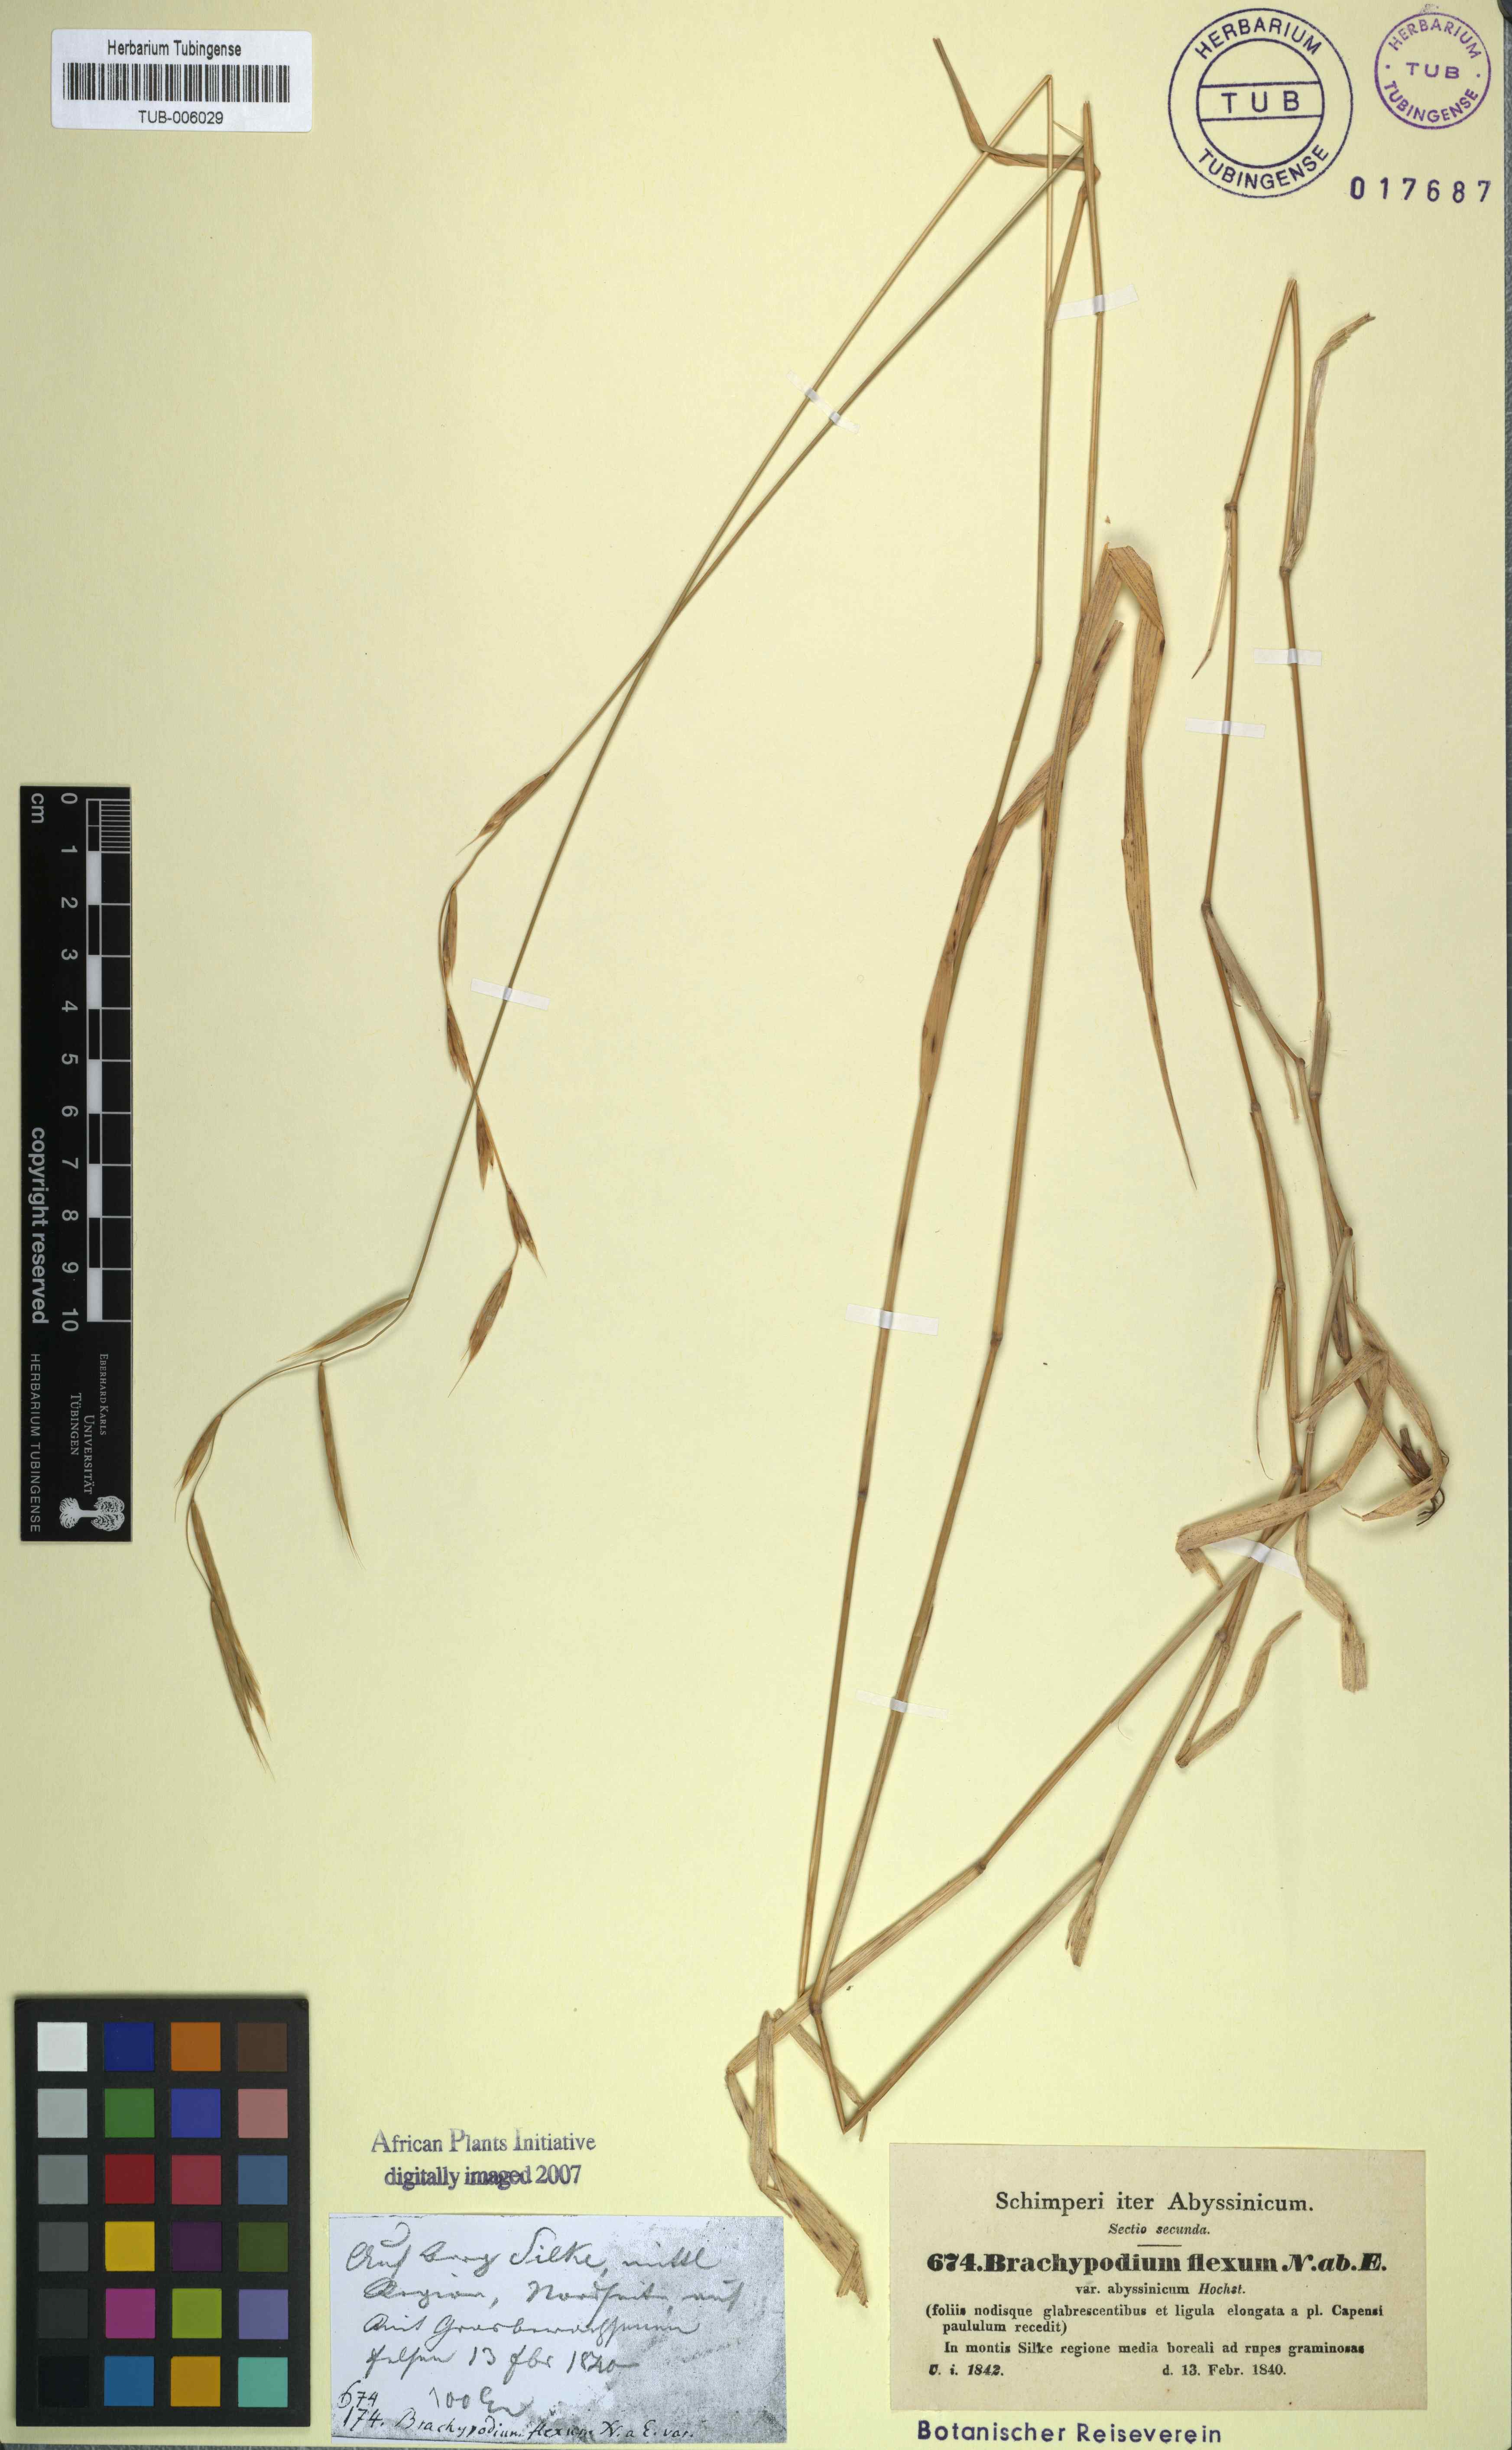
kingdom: Plantae
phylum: Tracheophyta
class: Liliopsida
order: Poales
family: Poaceae
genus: Brachypodium
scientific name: Brachypodium flexum
